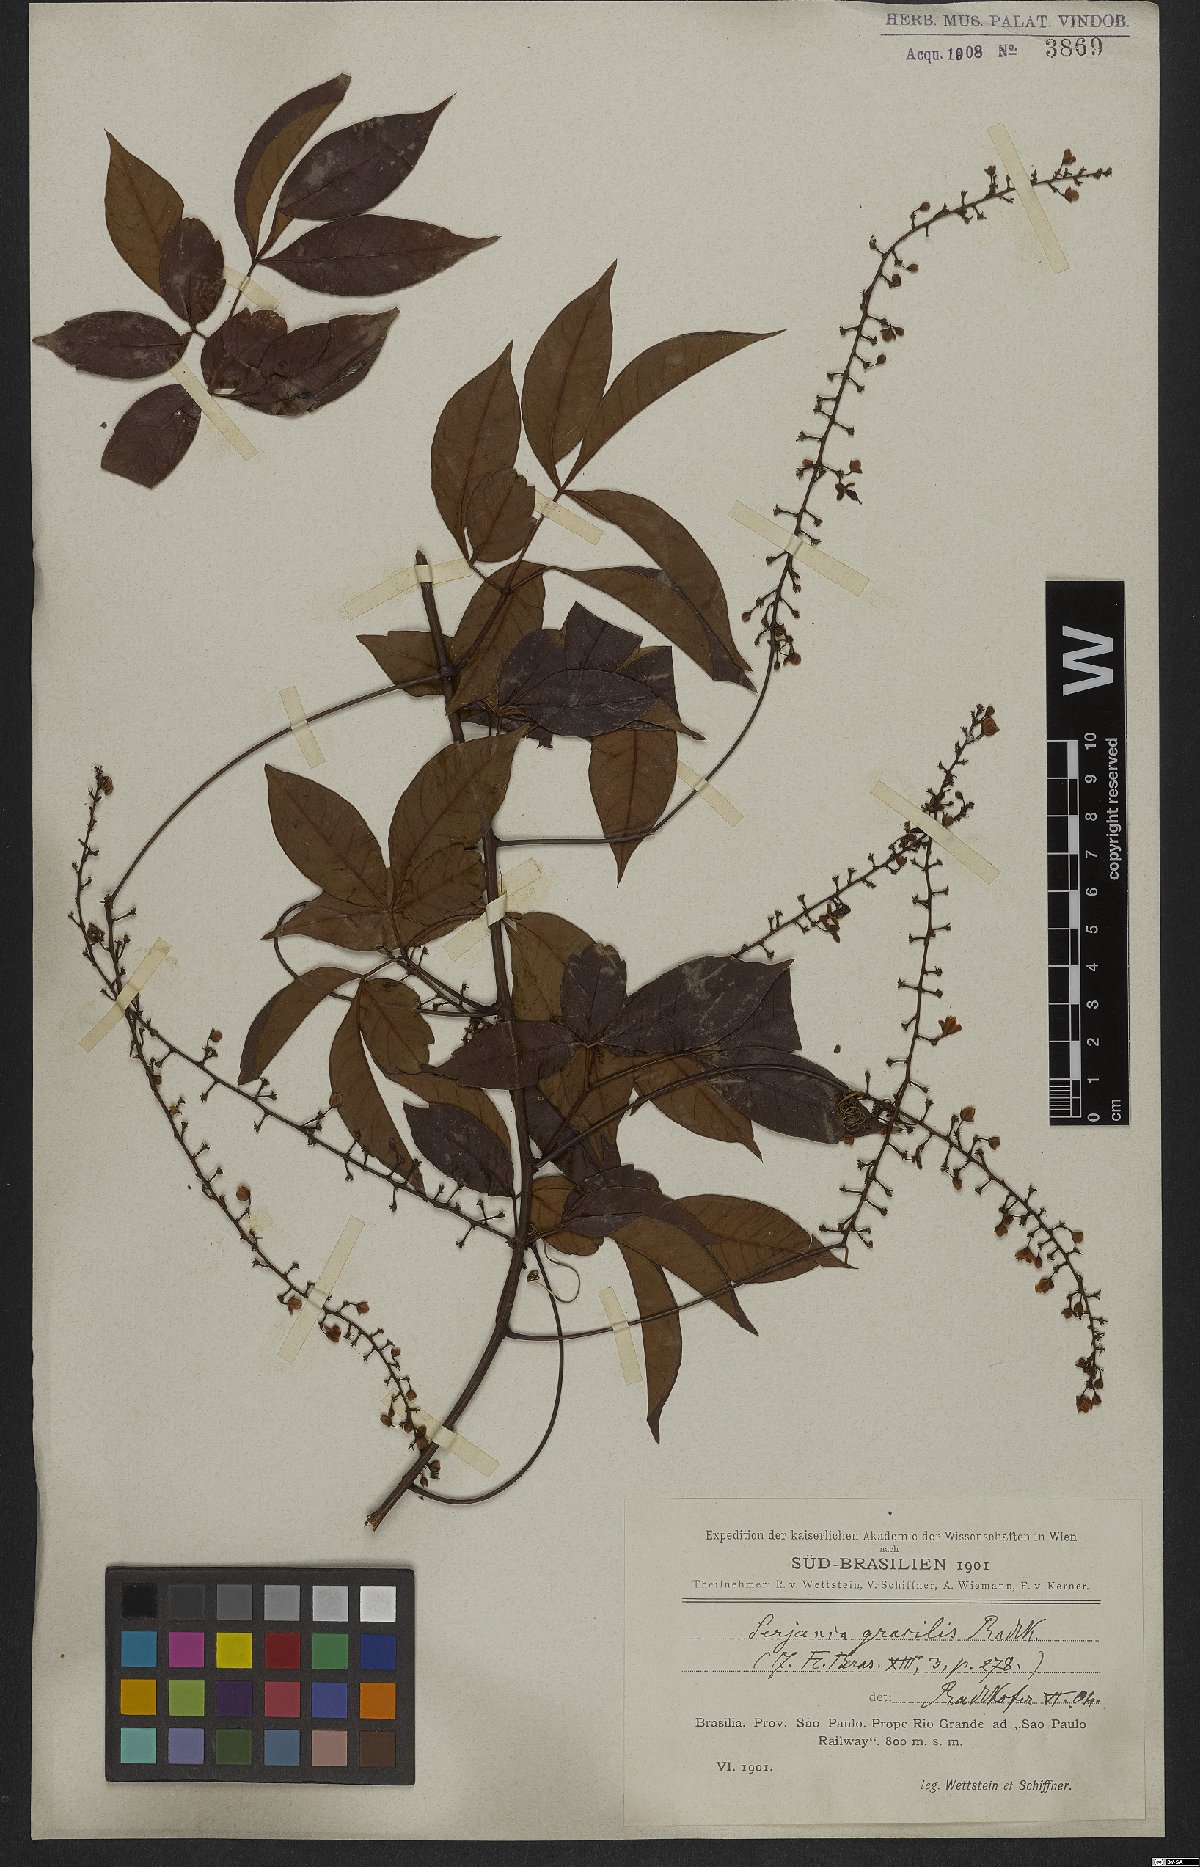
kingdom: Plantae
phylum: Tracheophyta
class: Magnoliopsida
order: Sapindales
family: Sapindaceae
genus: Serjania
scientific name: Serjania gracilis
